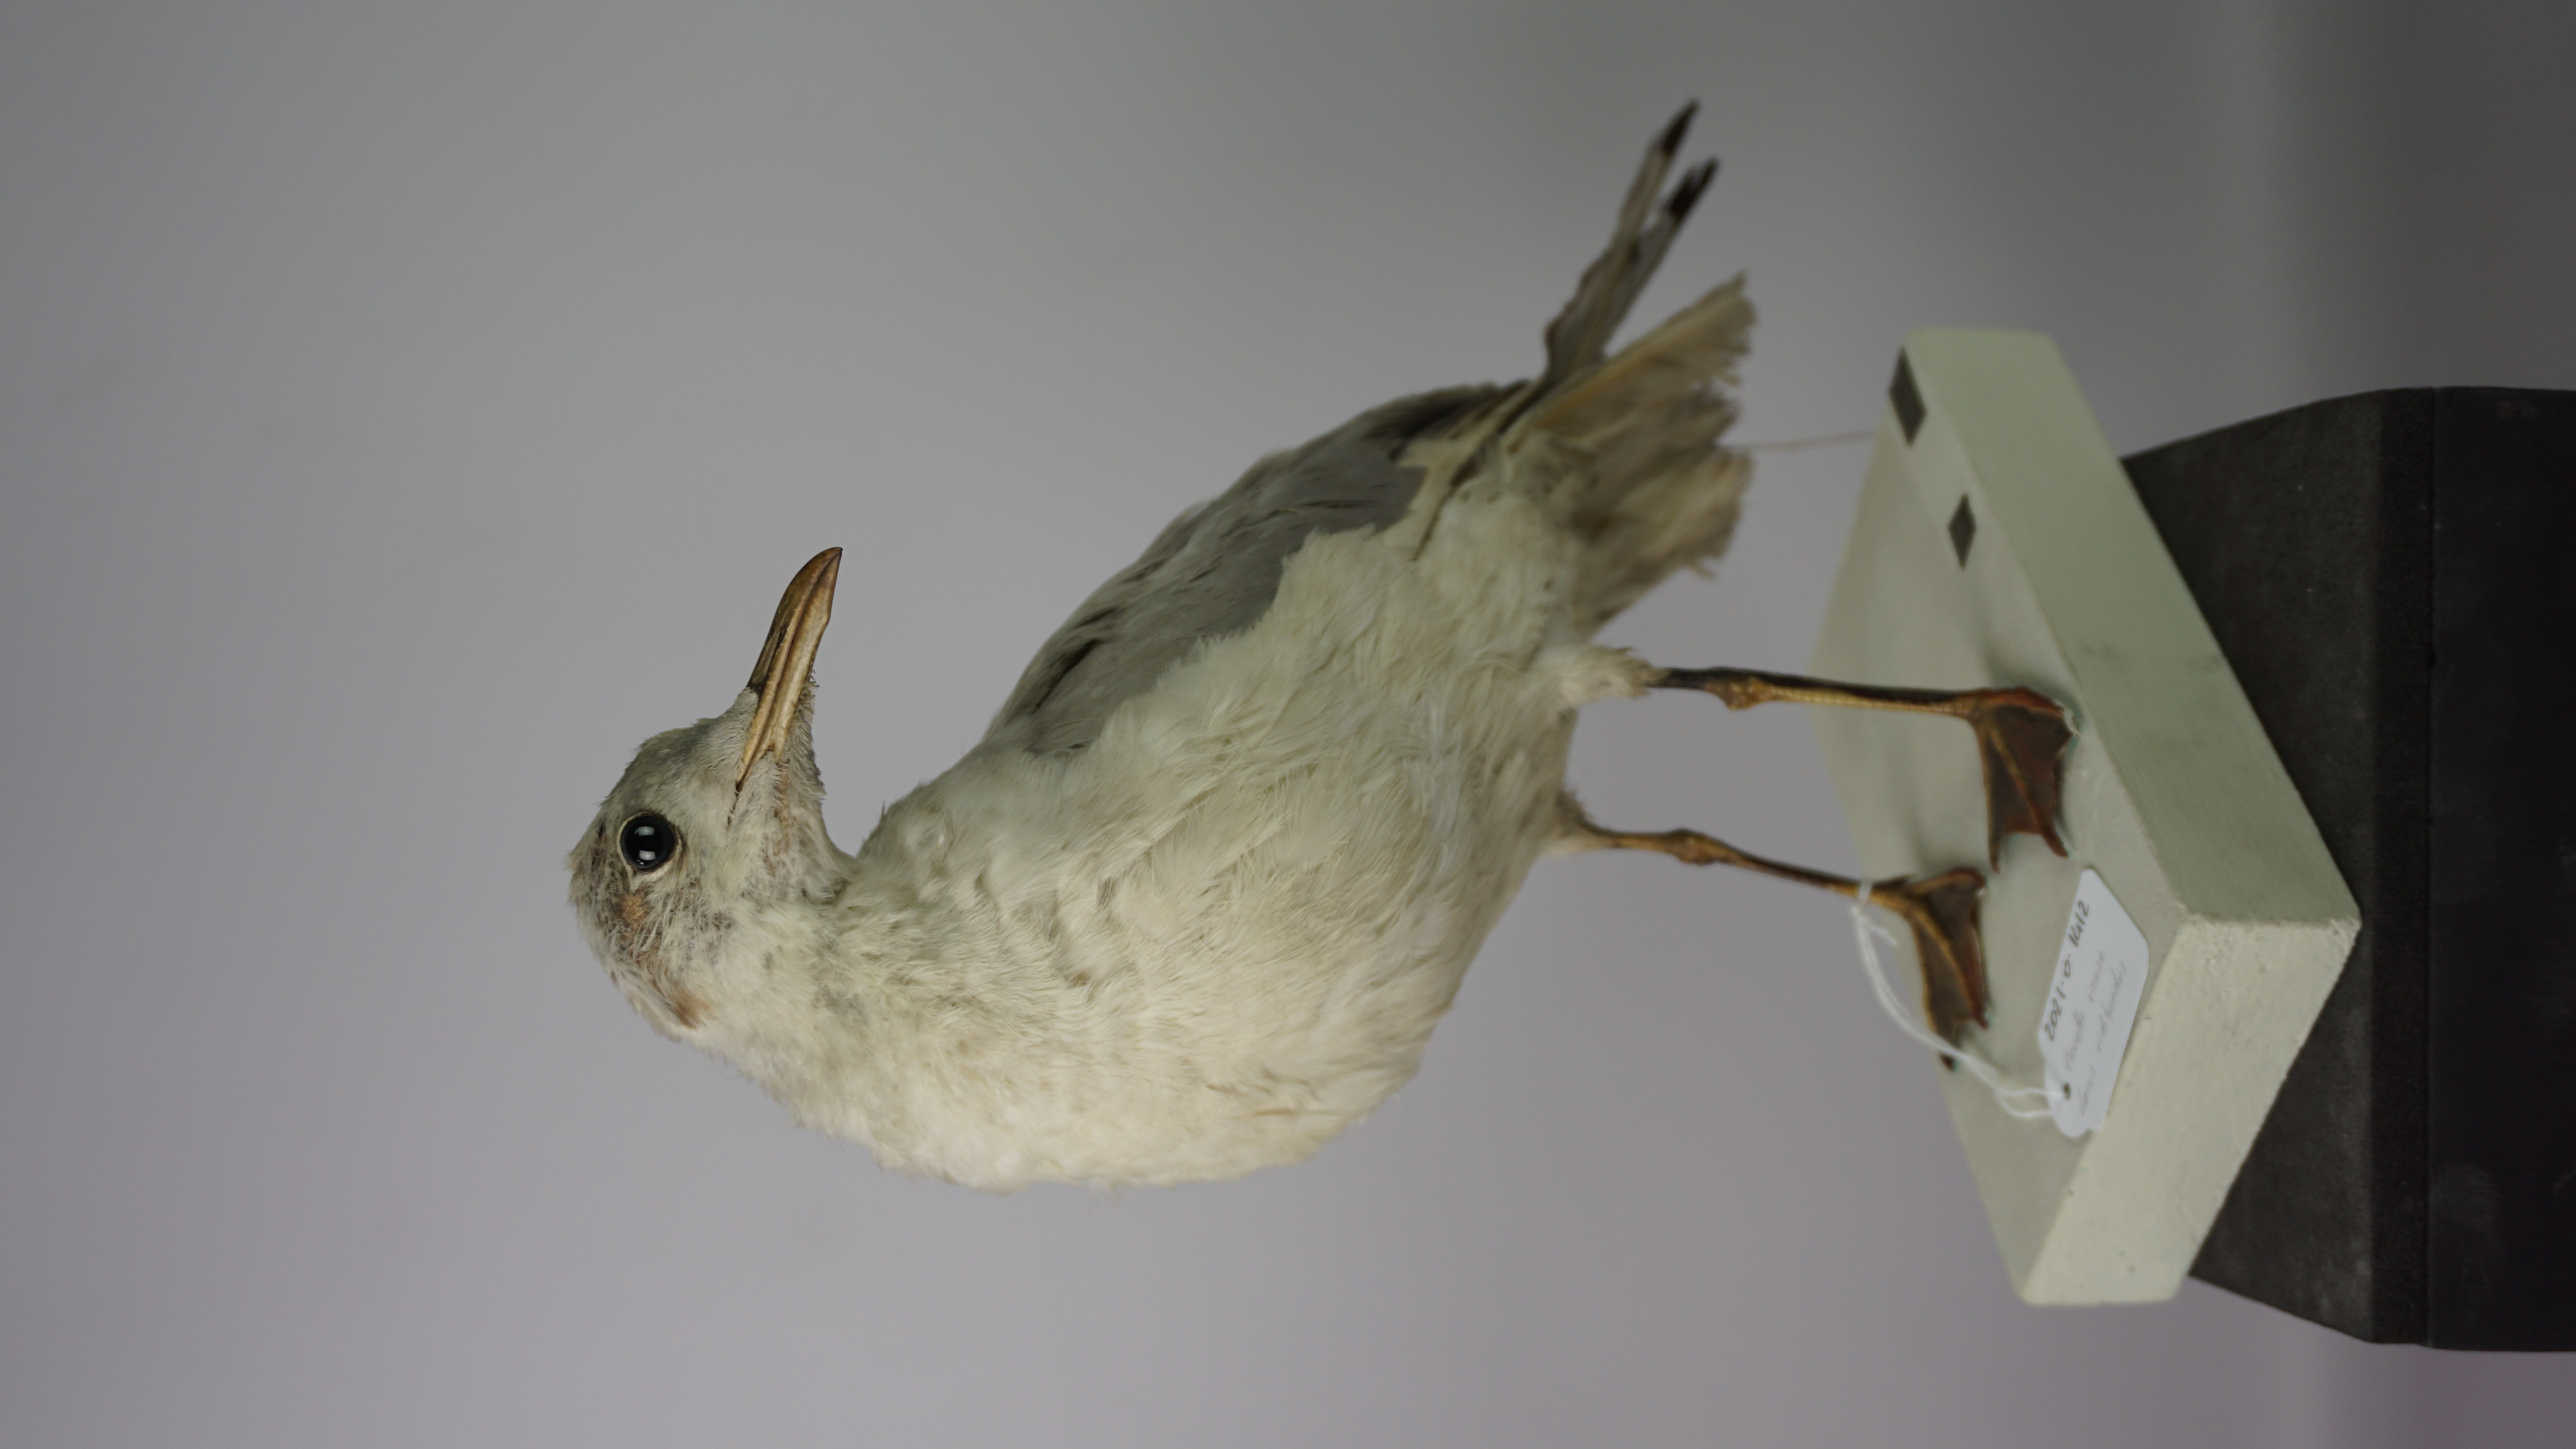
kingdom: Animalia
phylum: Chordata
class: Aves
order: Charadriiformes
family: Laridae
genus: Chroicocephalus
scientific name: Chroicocephalus ridibundus
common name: Black-headed gull
